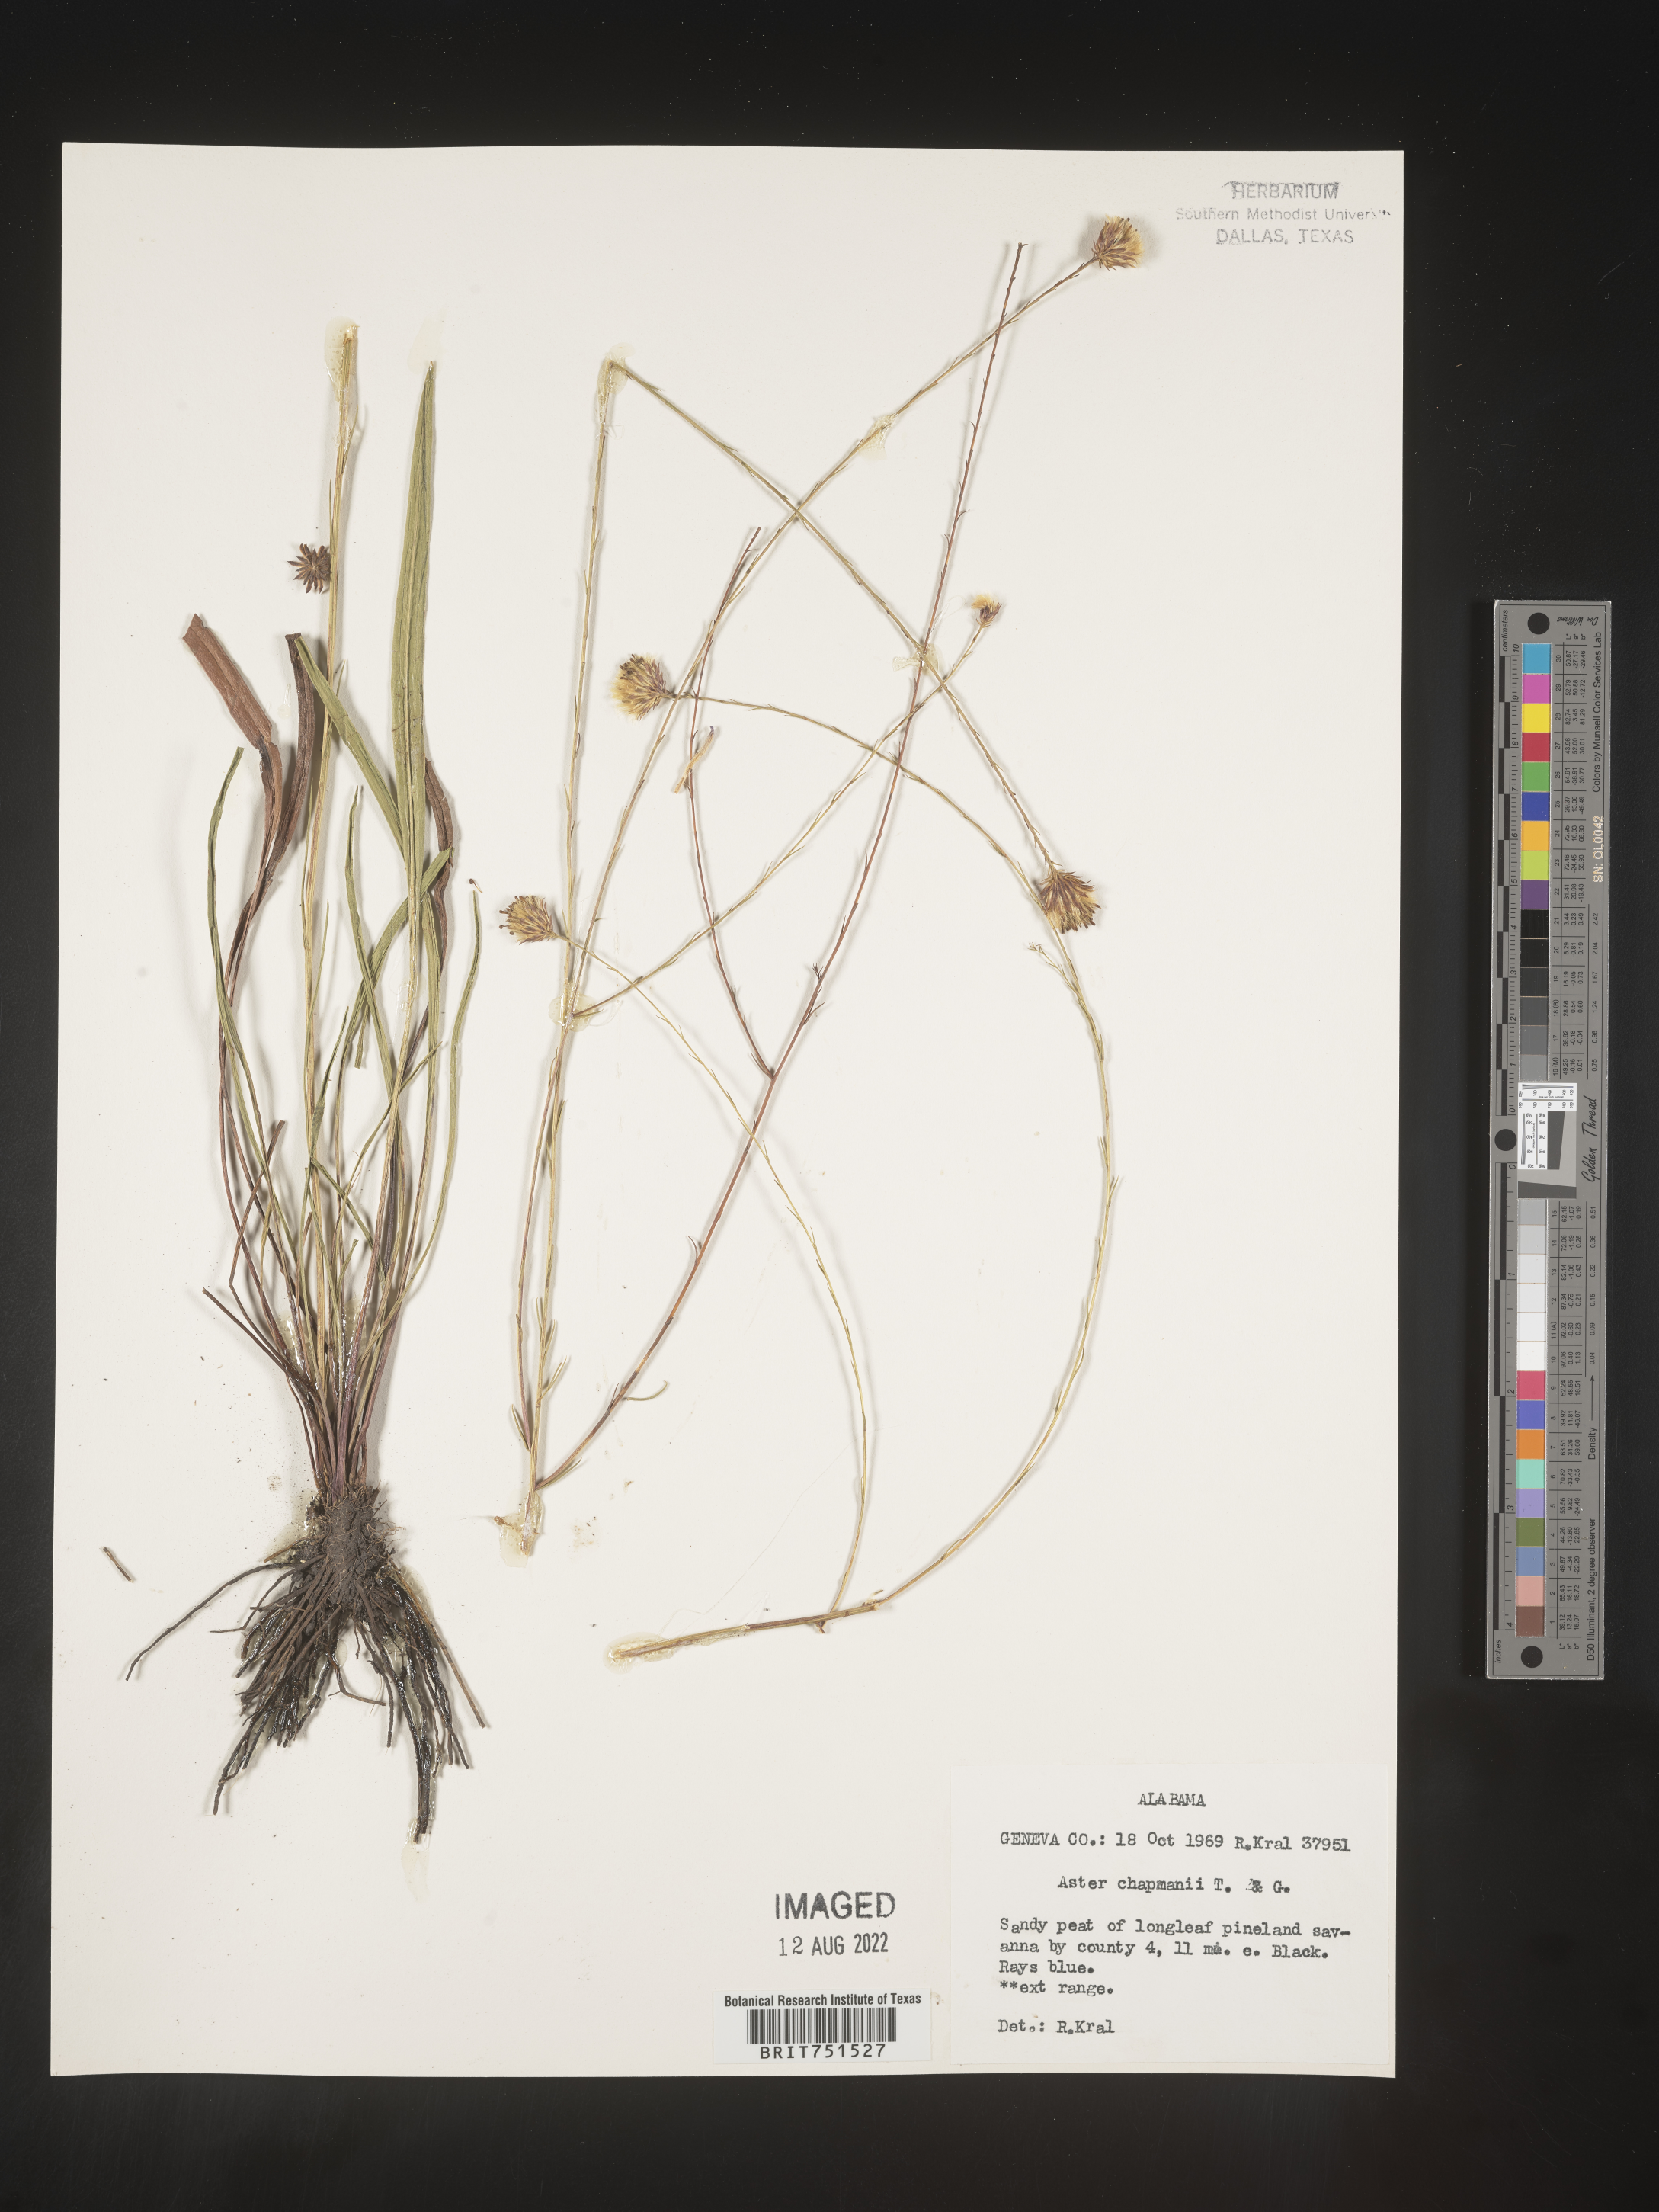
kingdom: Plantae
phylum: Tracheophyta
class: Magnoliopsida
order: Asterales
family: Asteraceae
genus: Symphyotrichum
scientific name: Symphyotrichum chapmanii
